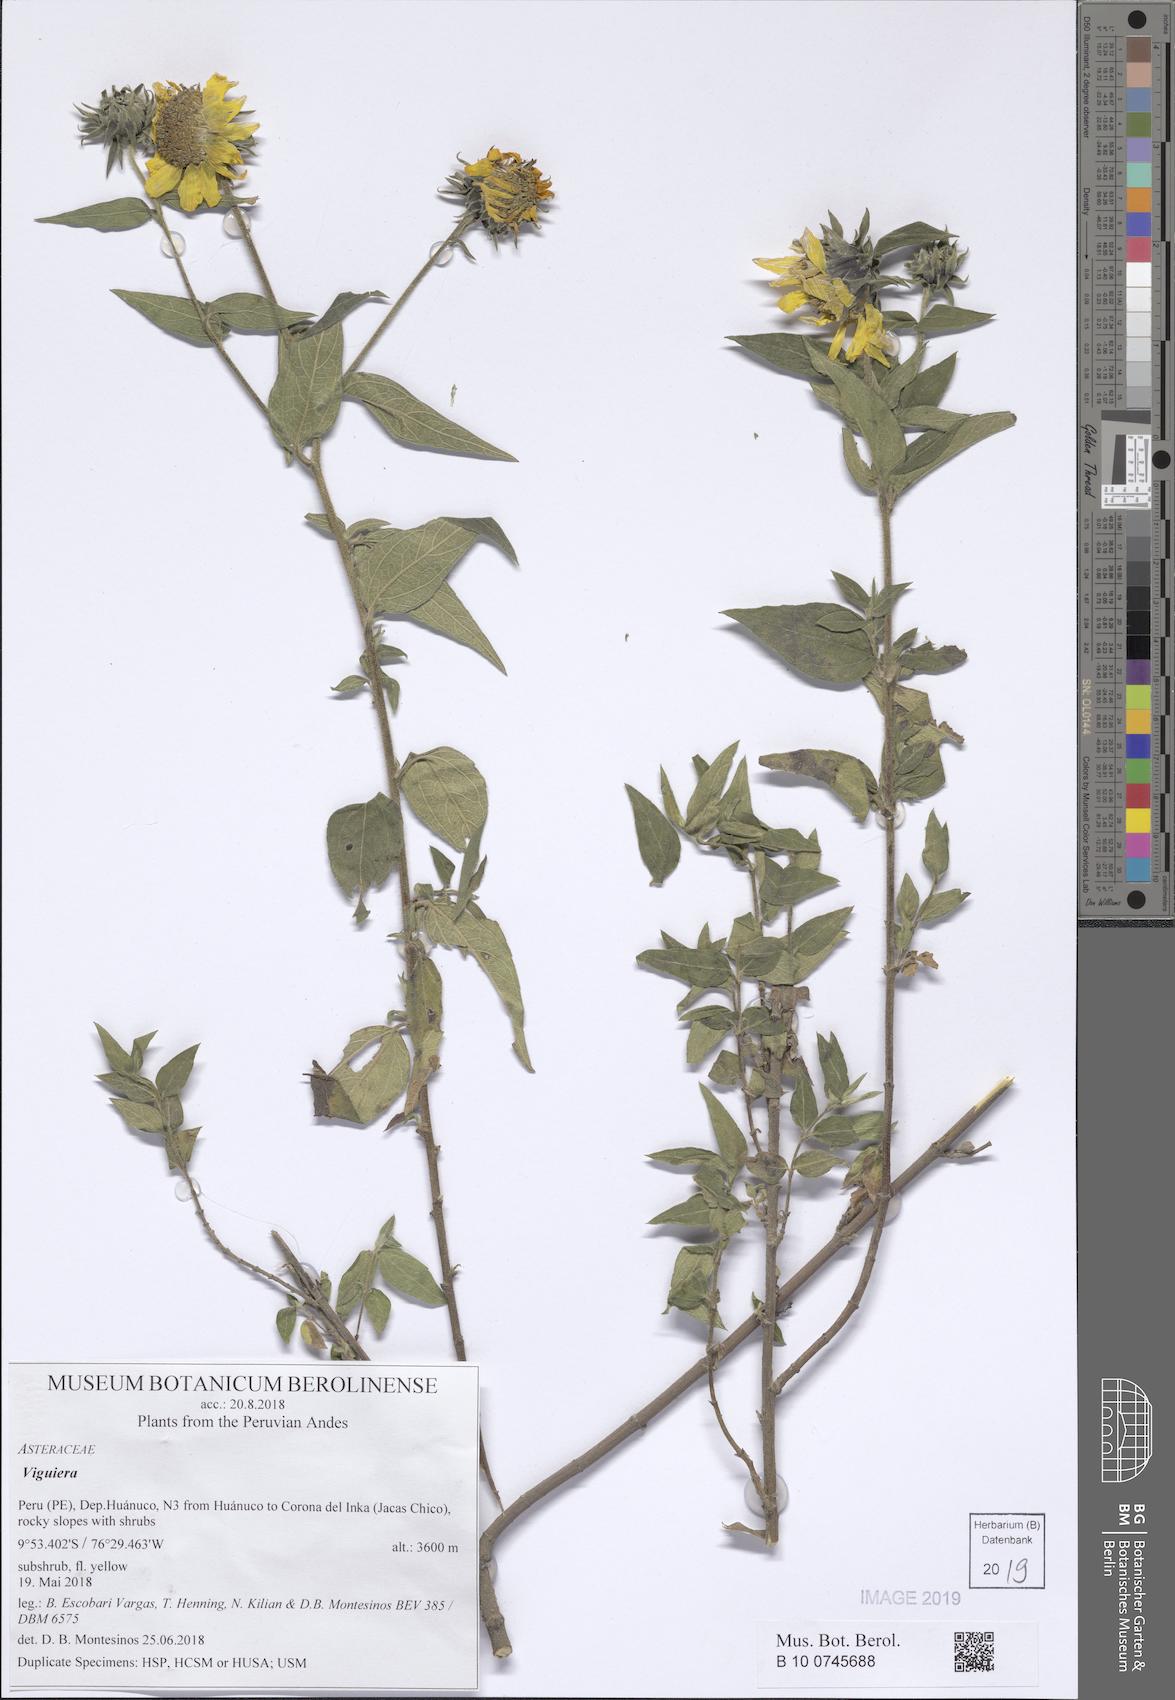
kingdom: Plantae
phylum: Tracheophyta
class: Magnoliopsida
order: Asterales
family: Asteraceae
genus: Viguiera
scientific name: Viguiera
